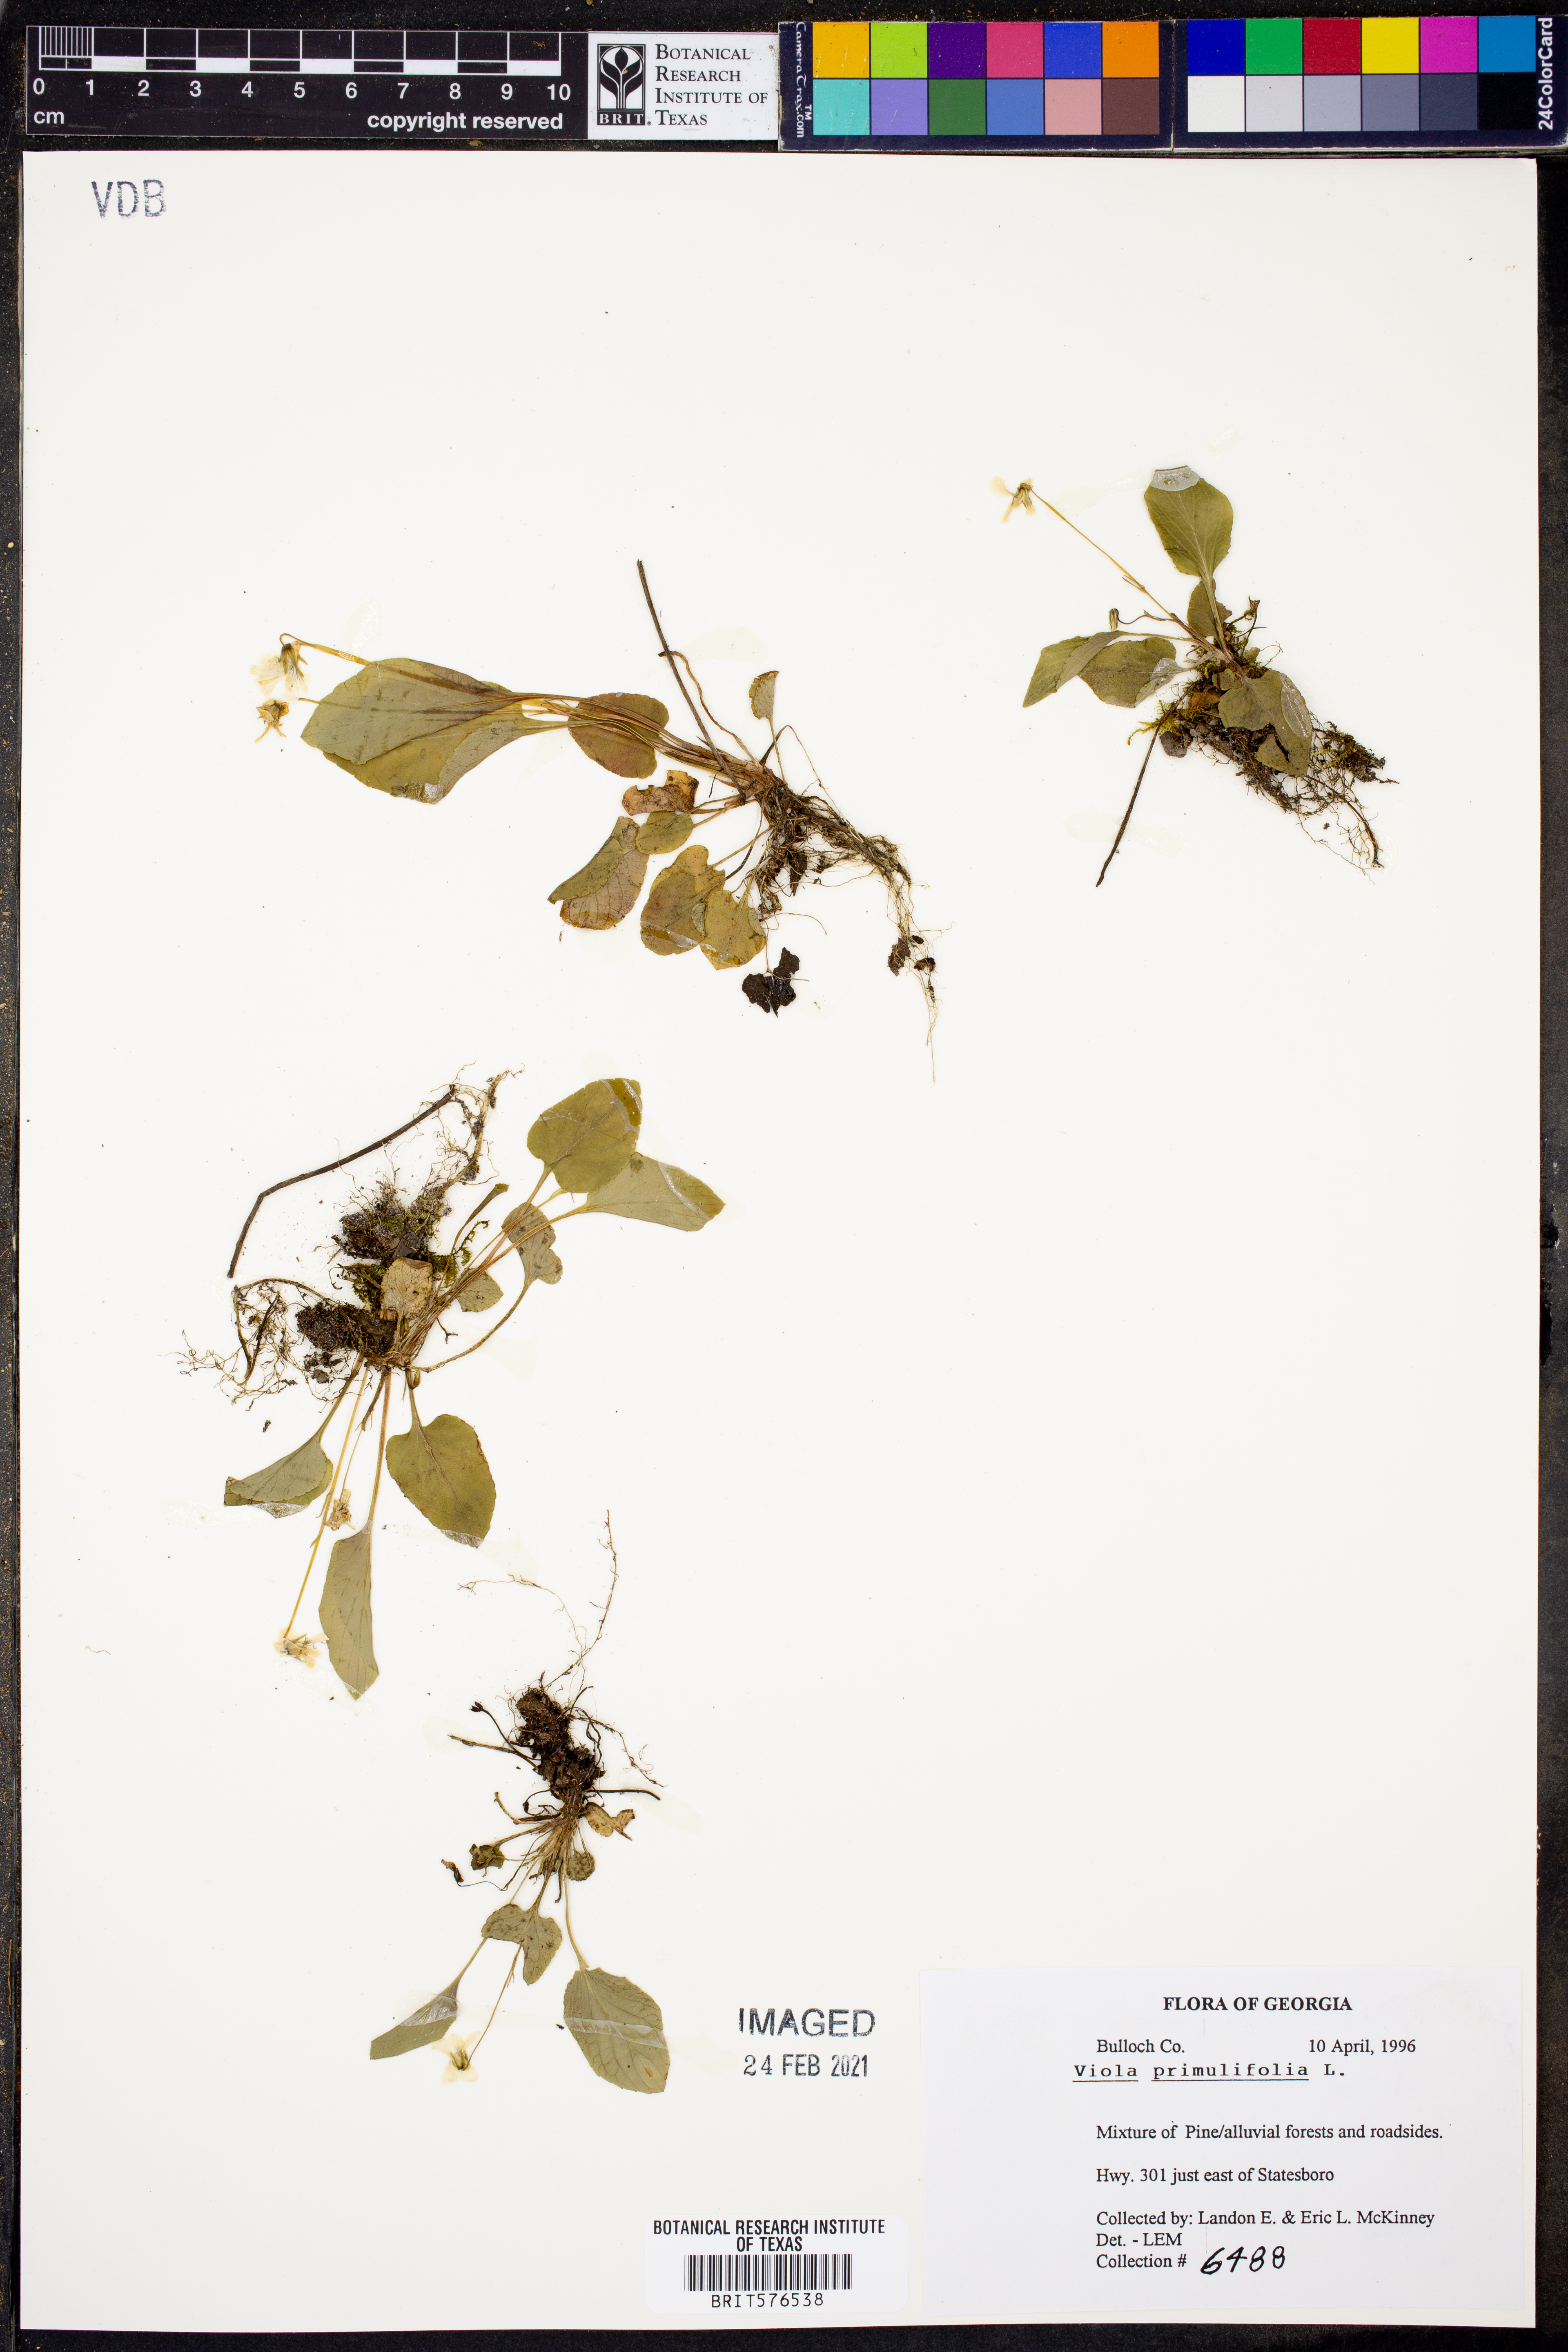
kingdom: Plantae
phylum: Tracheophyta
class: Magnoliopsida
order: Malpighiales
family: Violaceae
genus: Viola
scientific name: Viola primulifolia
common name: Primrose-leaf violet
